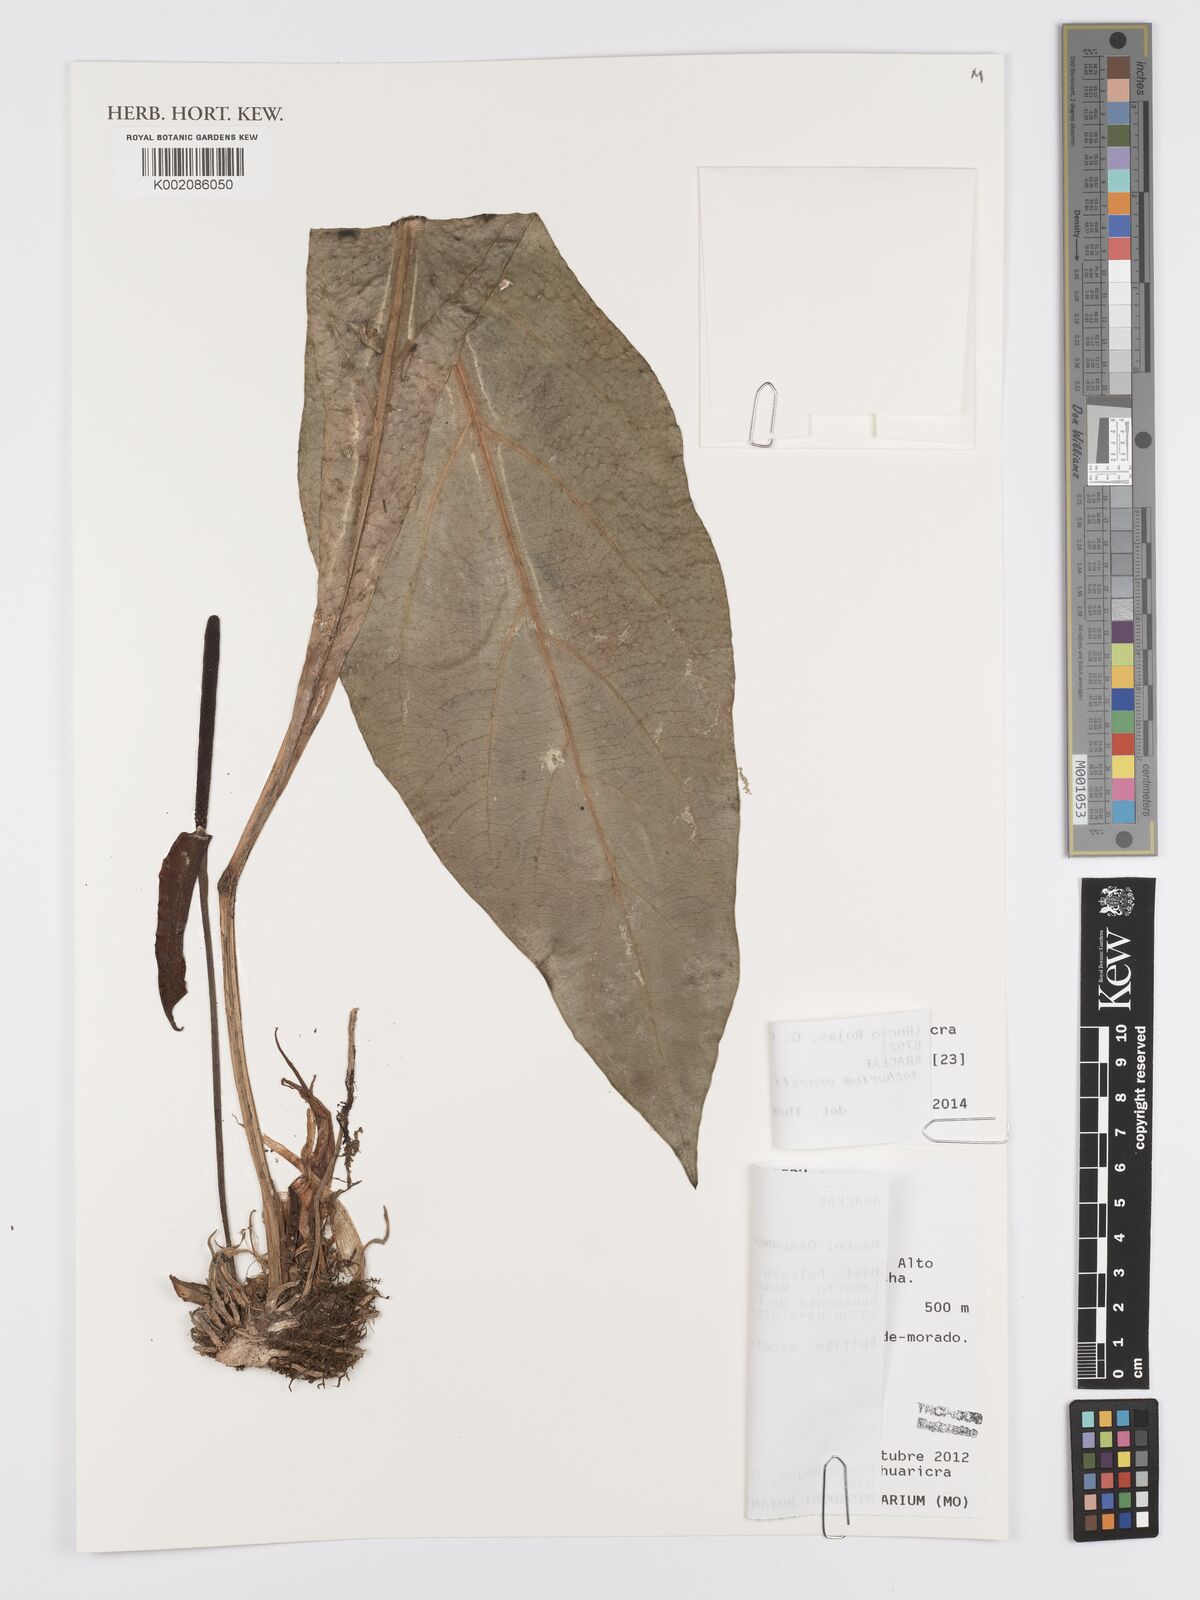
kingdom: Plantae
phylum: Tracheophyta
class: Liliopsida
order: Alismatales
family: Araceae
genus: Anthurium
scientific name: Anthurium ernesti
